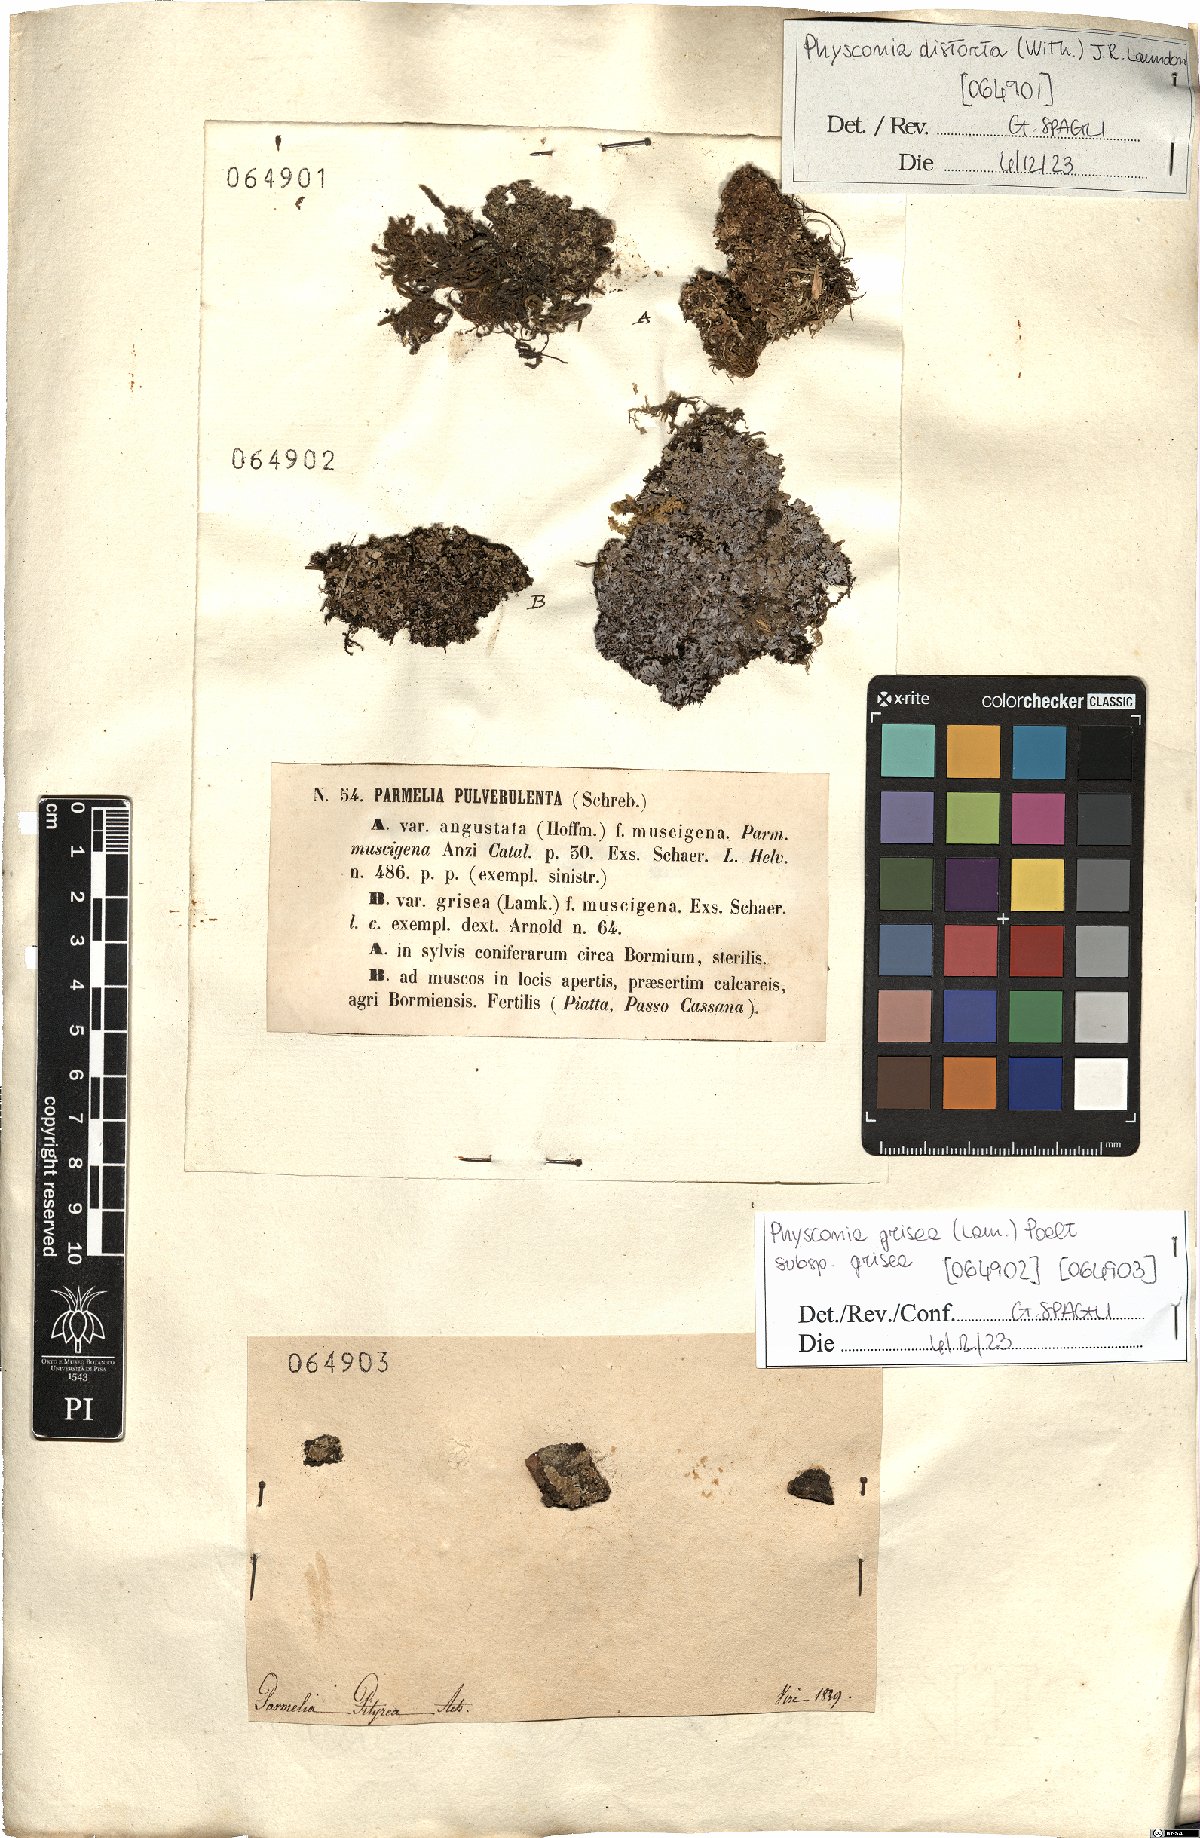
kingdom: Fungi
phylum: Ascomycota
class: Lecanoromycetes
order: Caliciales
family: Physciaceae
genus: Physconia
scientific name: Physconia distorta
